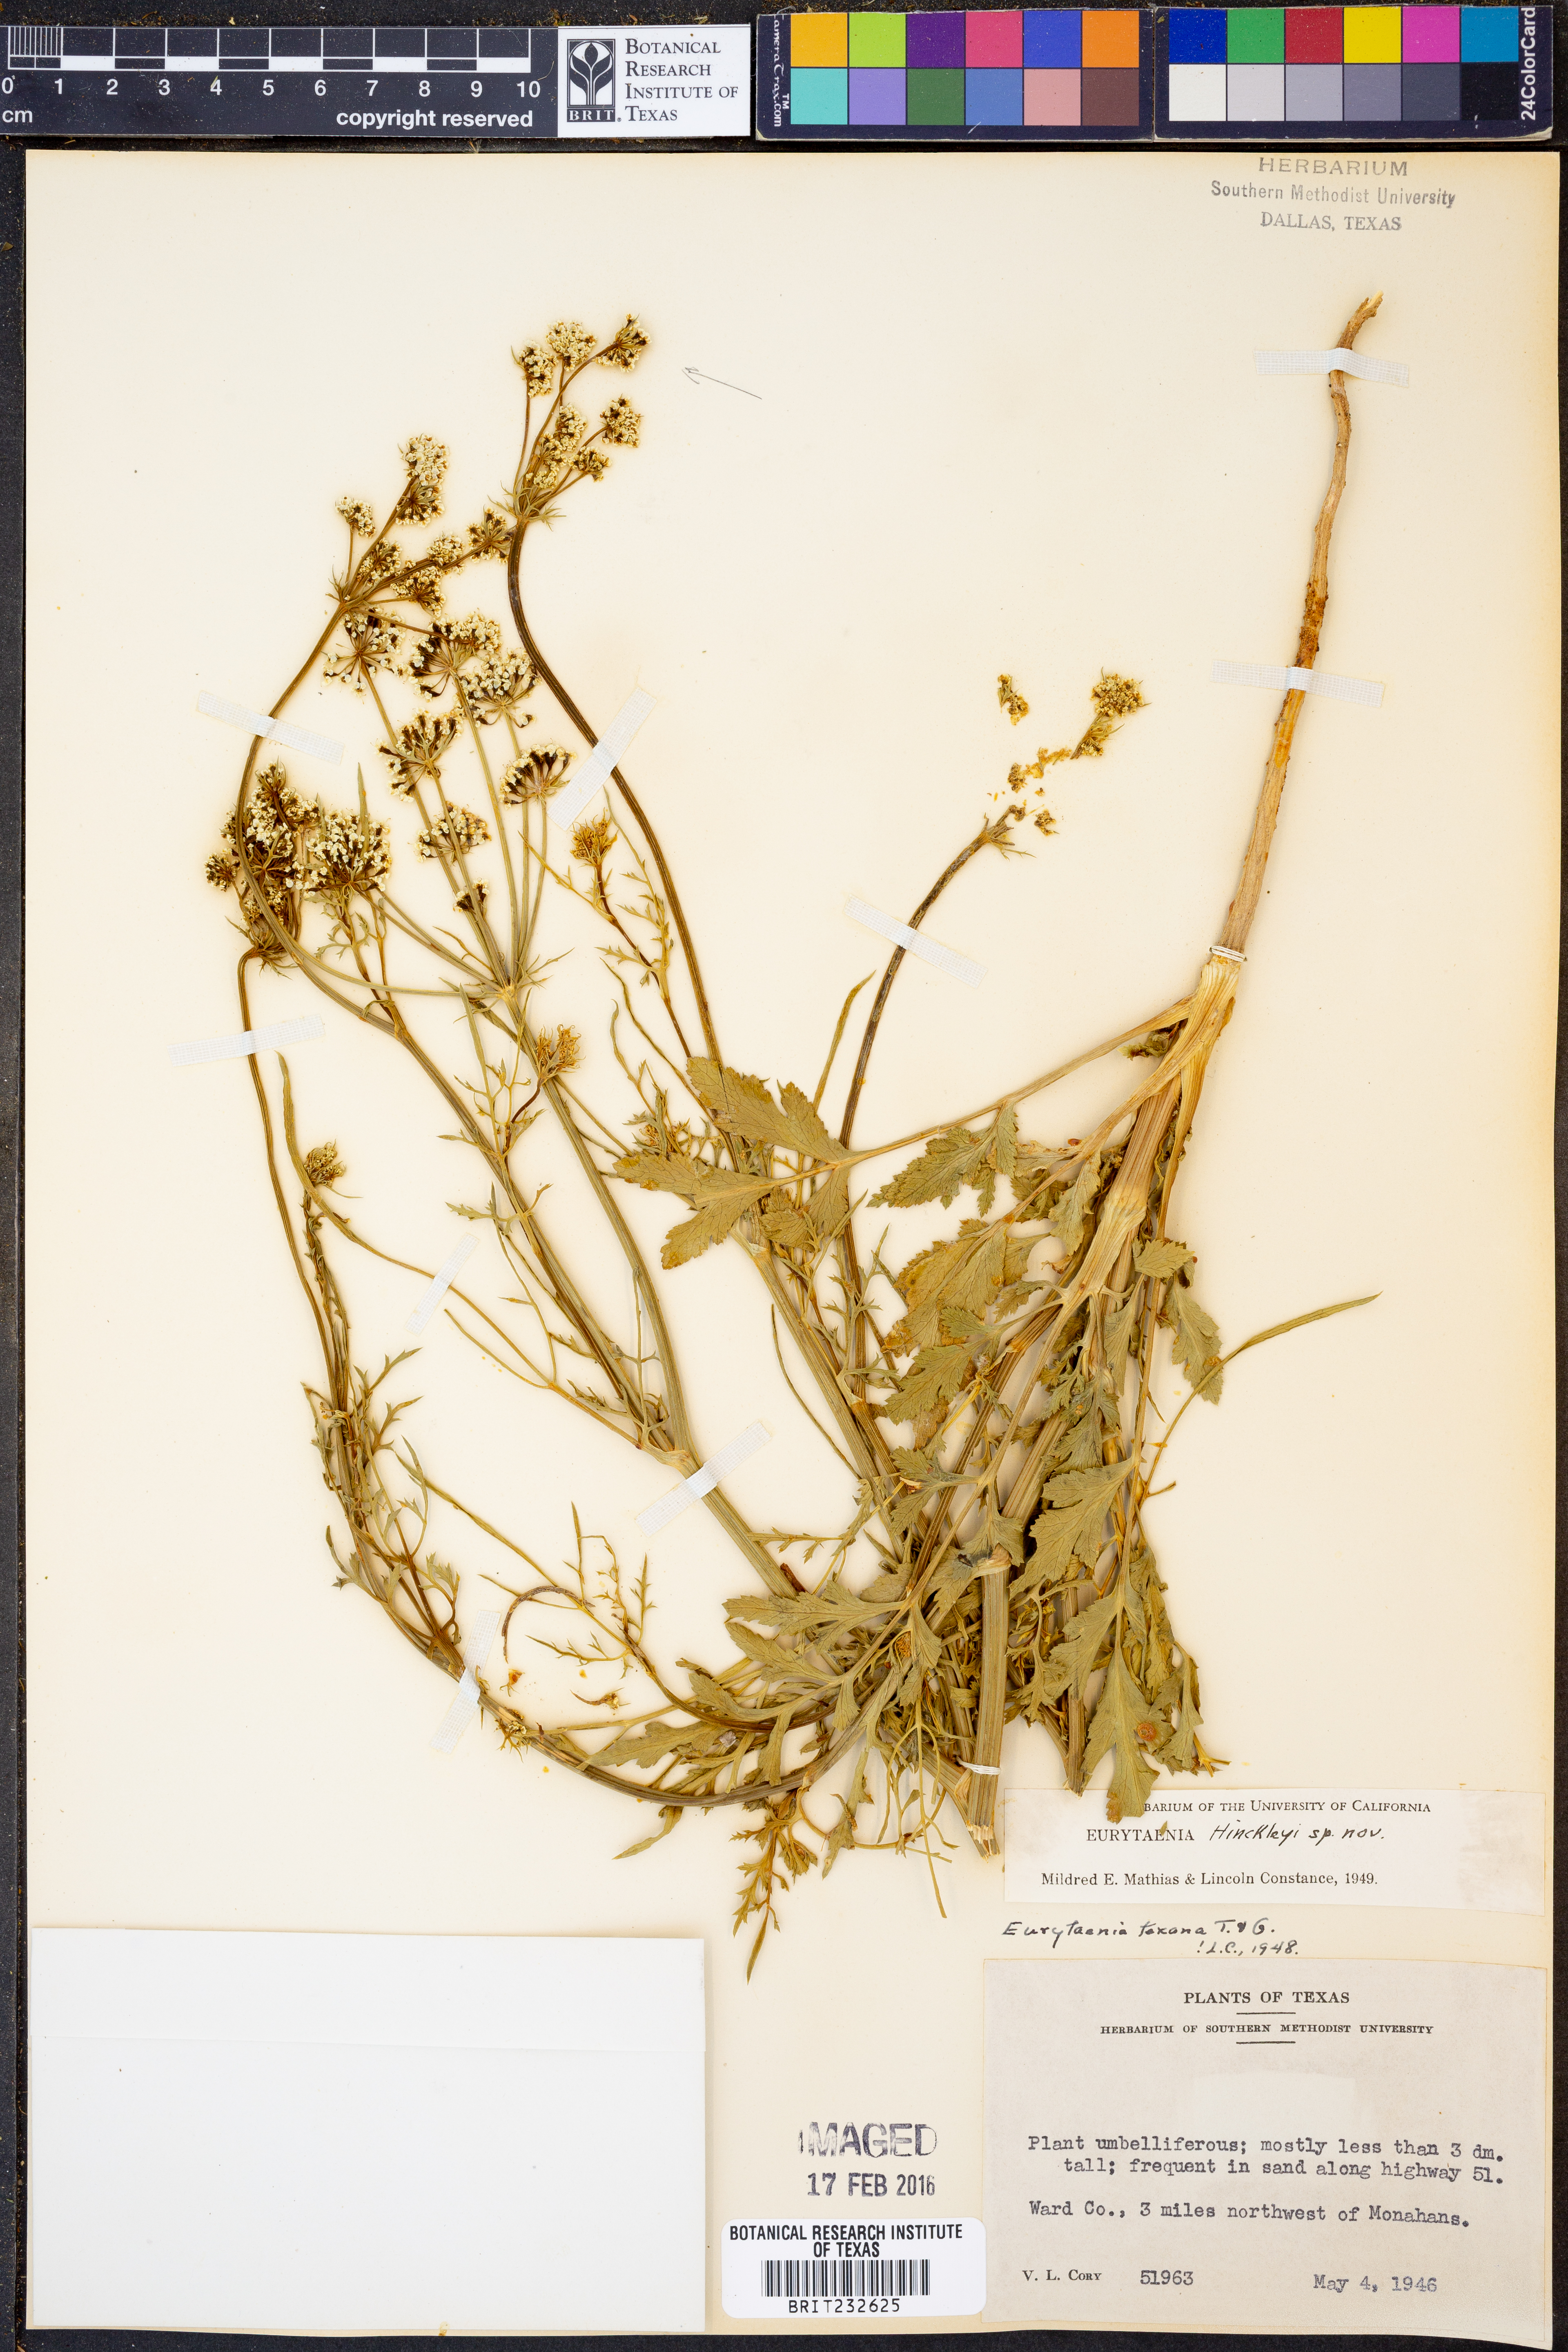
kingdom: Plantae
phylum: Tracheophyta
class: Magnoliopsida
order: Apiales
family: Apiaceae
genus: Eurytaenia
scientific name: Eurytaenia hinckleyi
